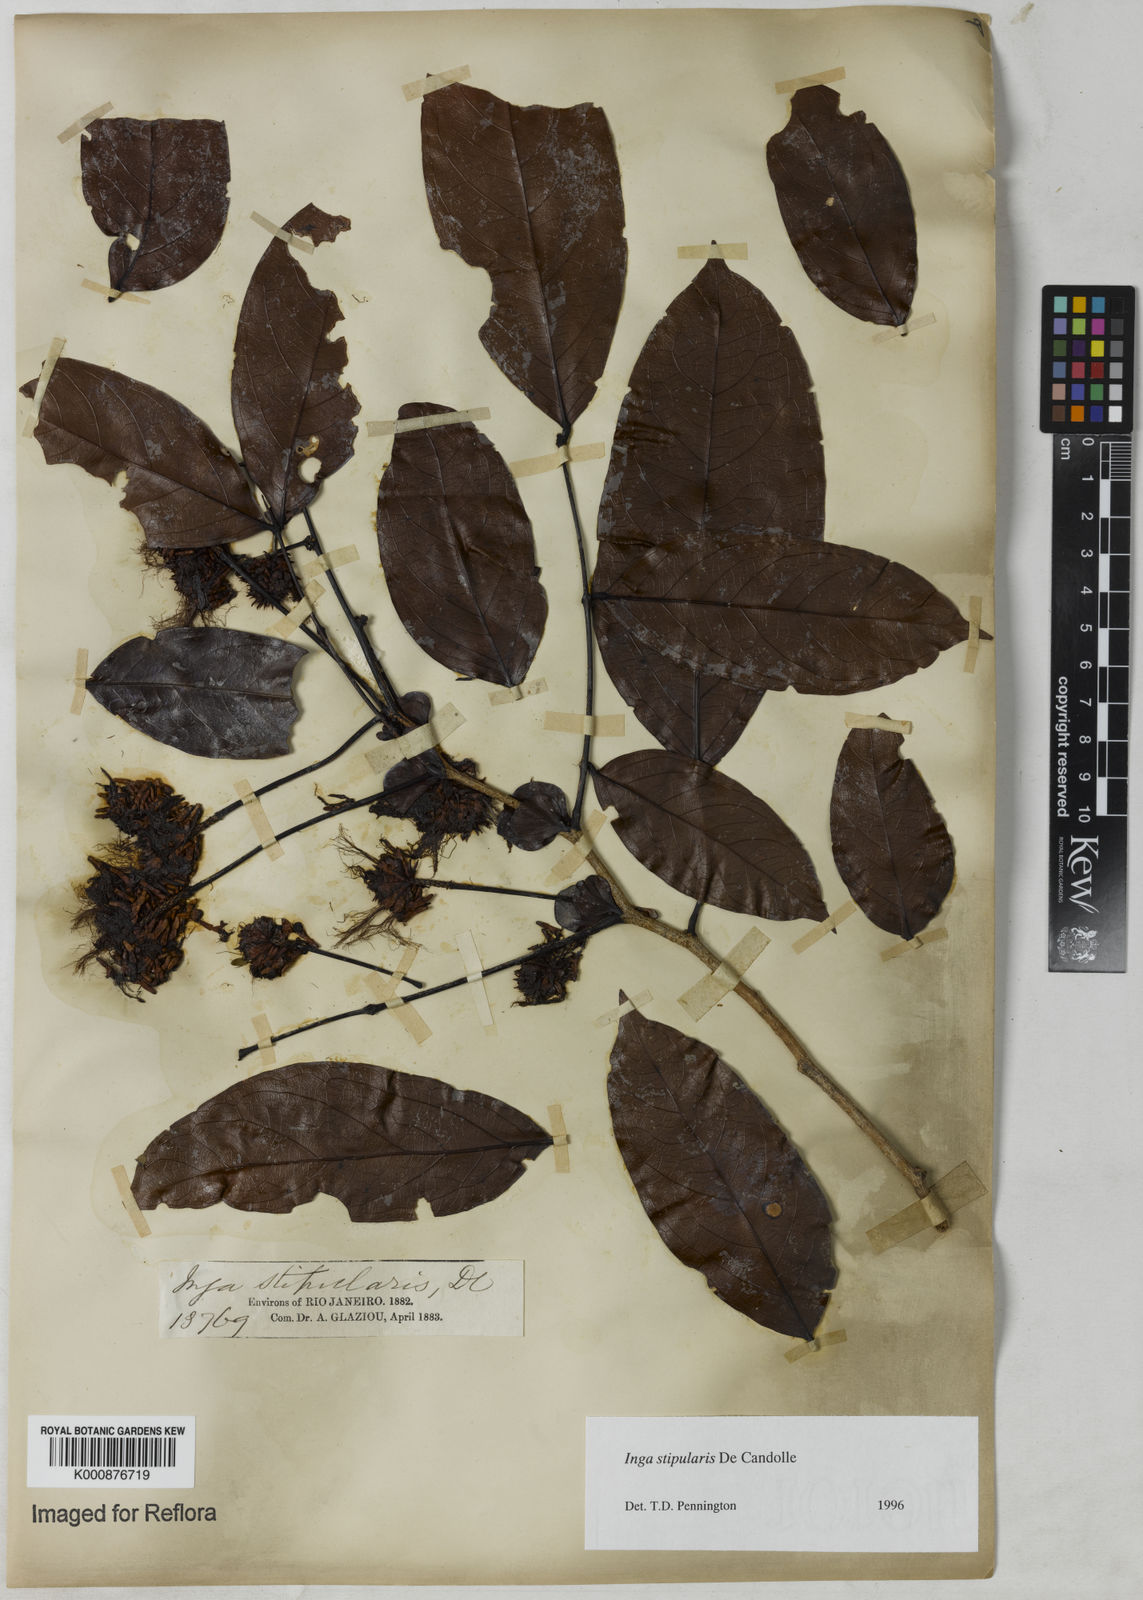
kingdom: Plantae
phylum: Tracheophyta
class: Magnoliopsida
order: Fabales
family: Fabaceae
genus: Inga
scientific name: Inga stipularis
